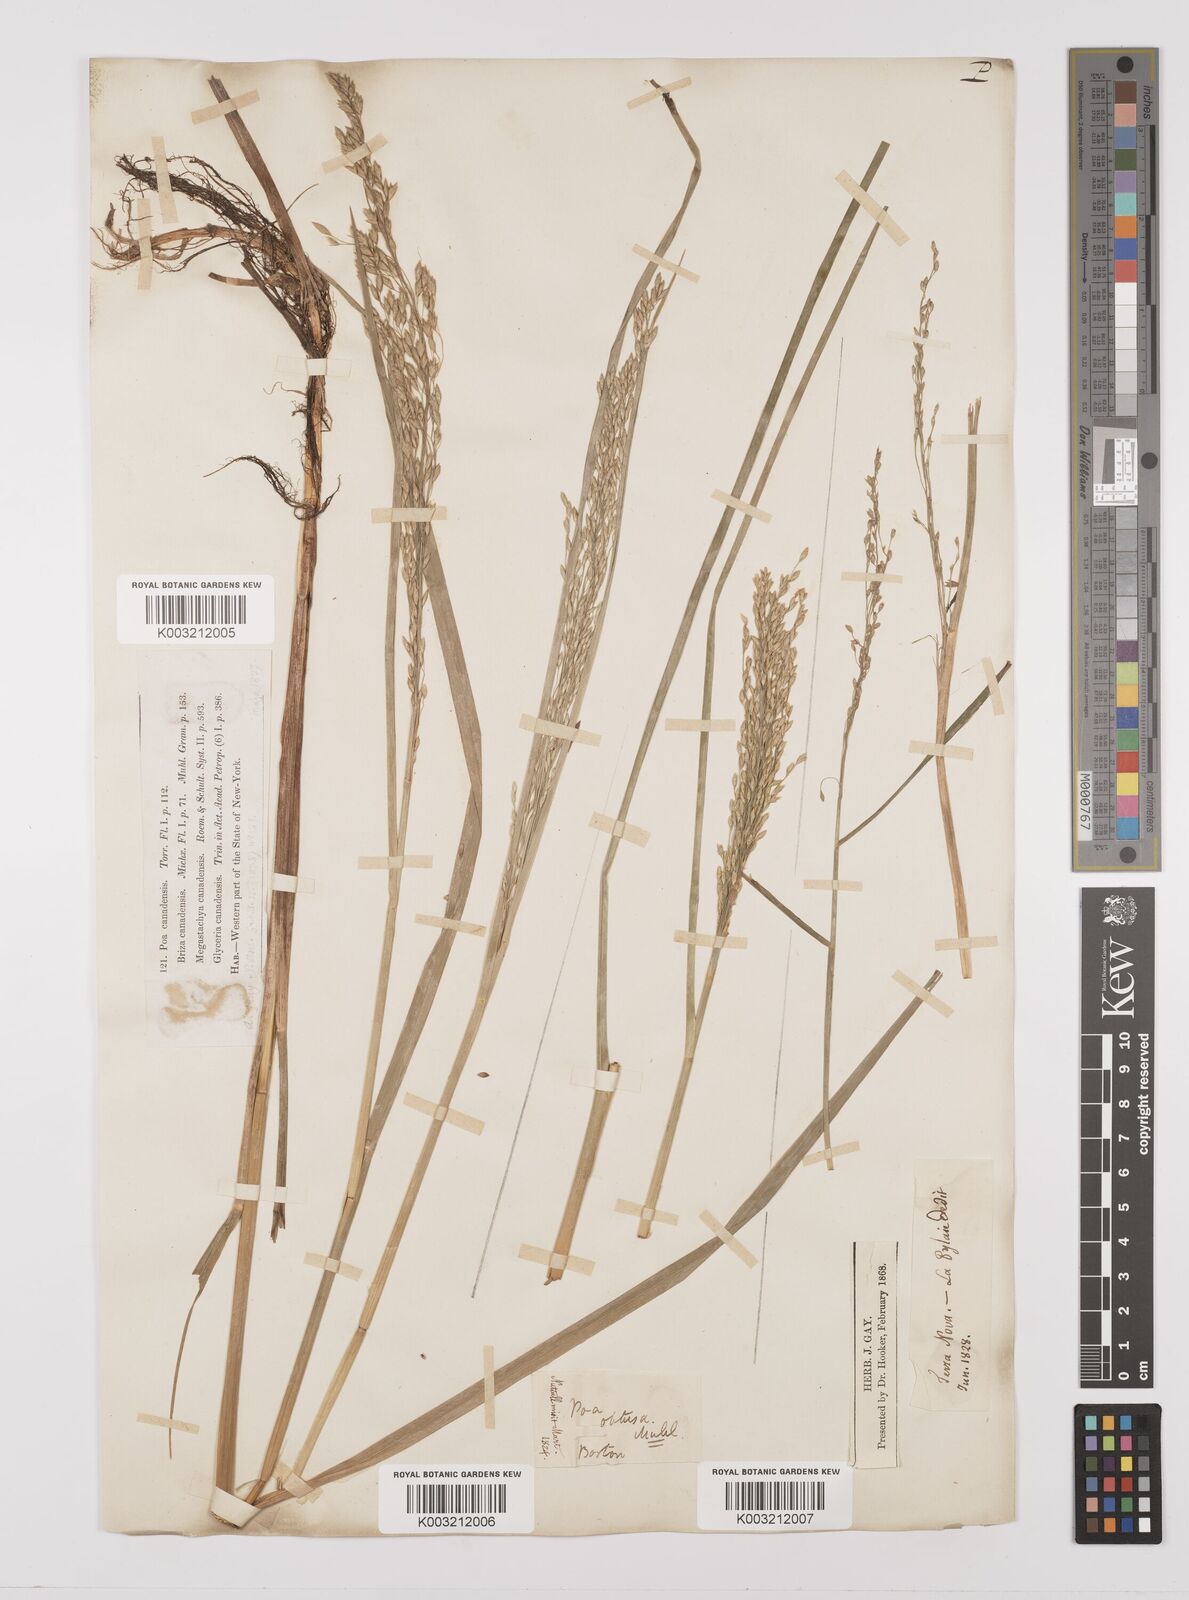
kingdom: Plantae
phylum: Tracheophyta
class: Liliopsida
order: Poales
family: Poaceae
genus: Glyceria
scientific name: Glyceria canadensis
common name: Canada mannagrass
